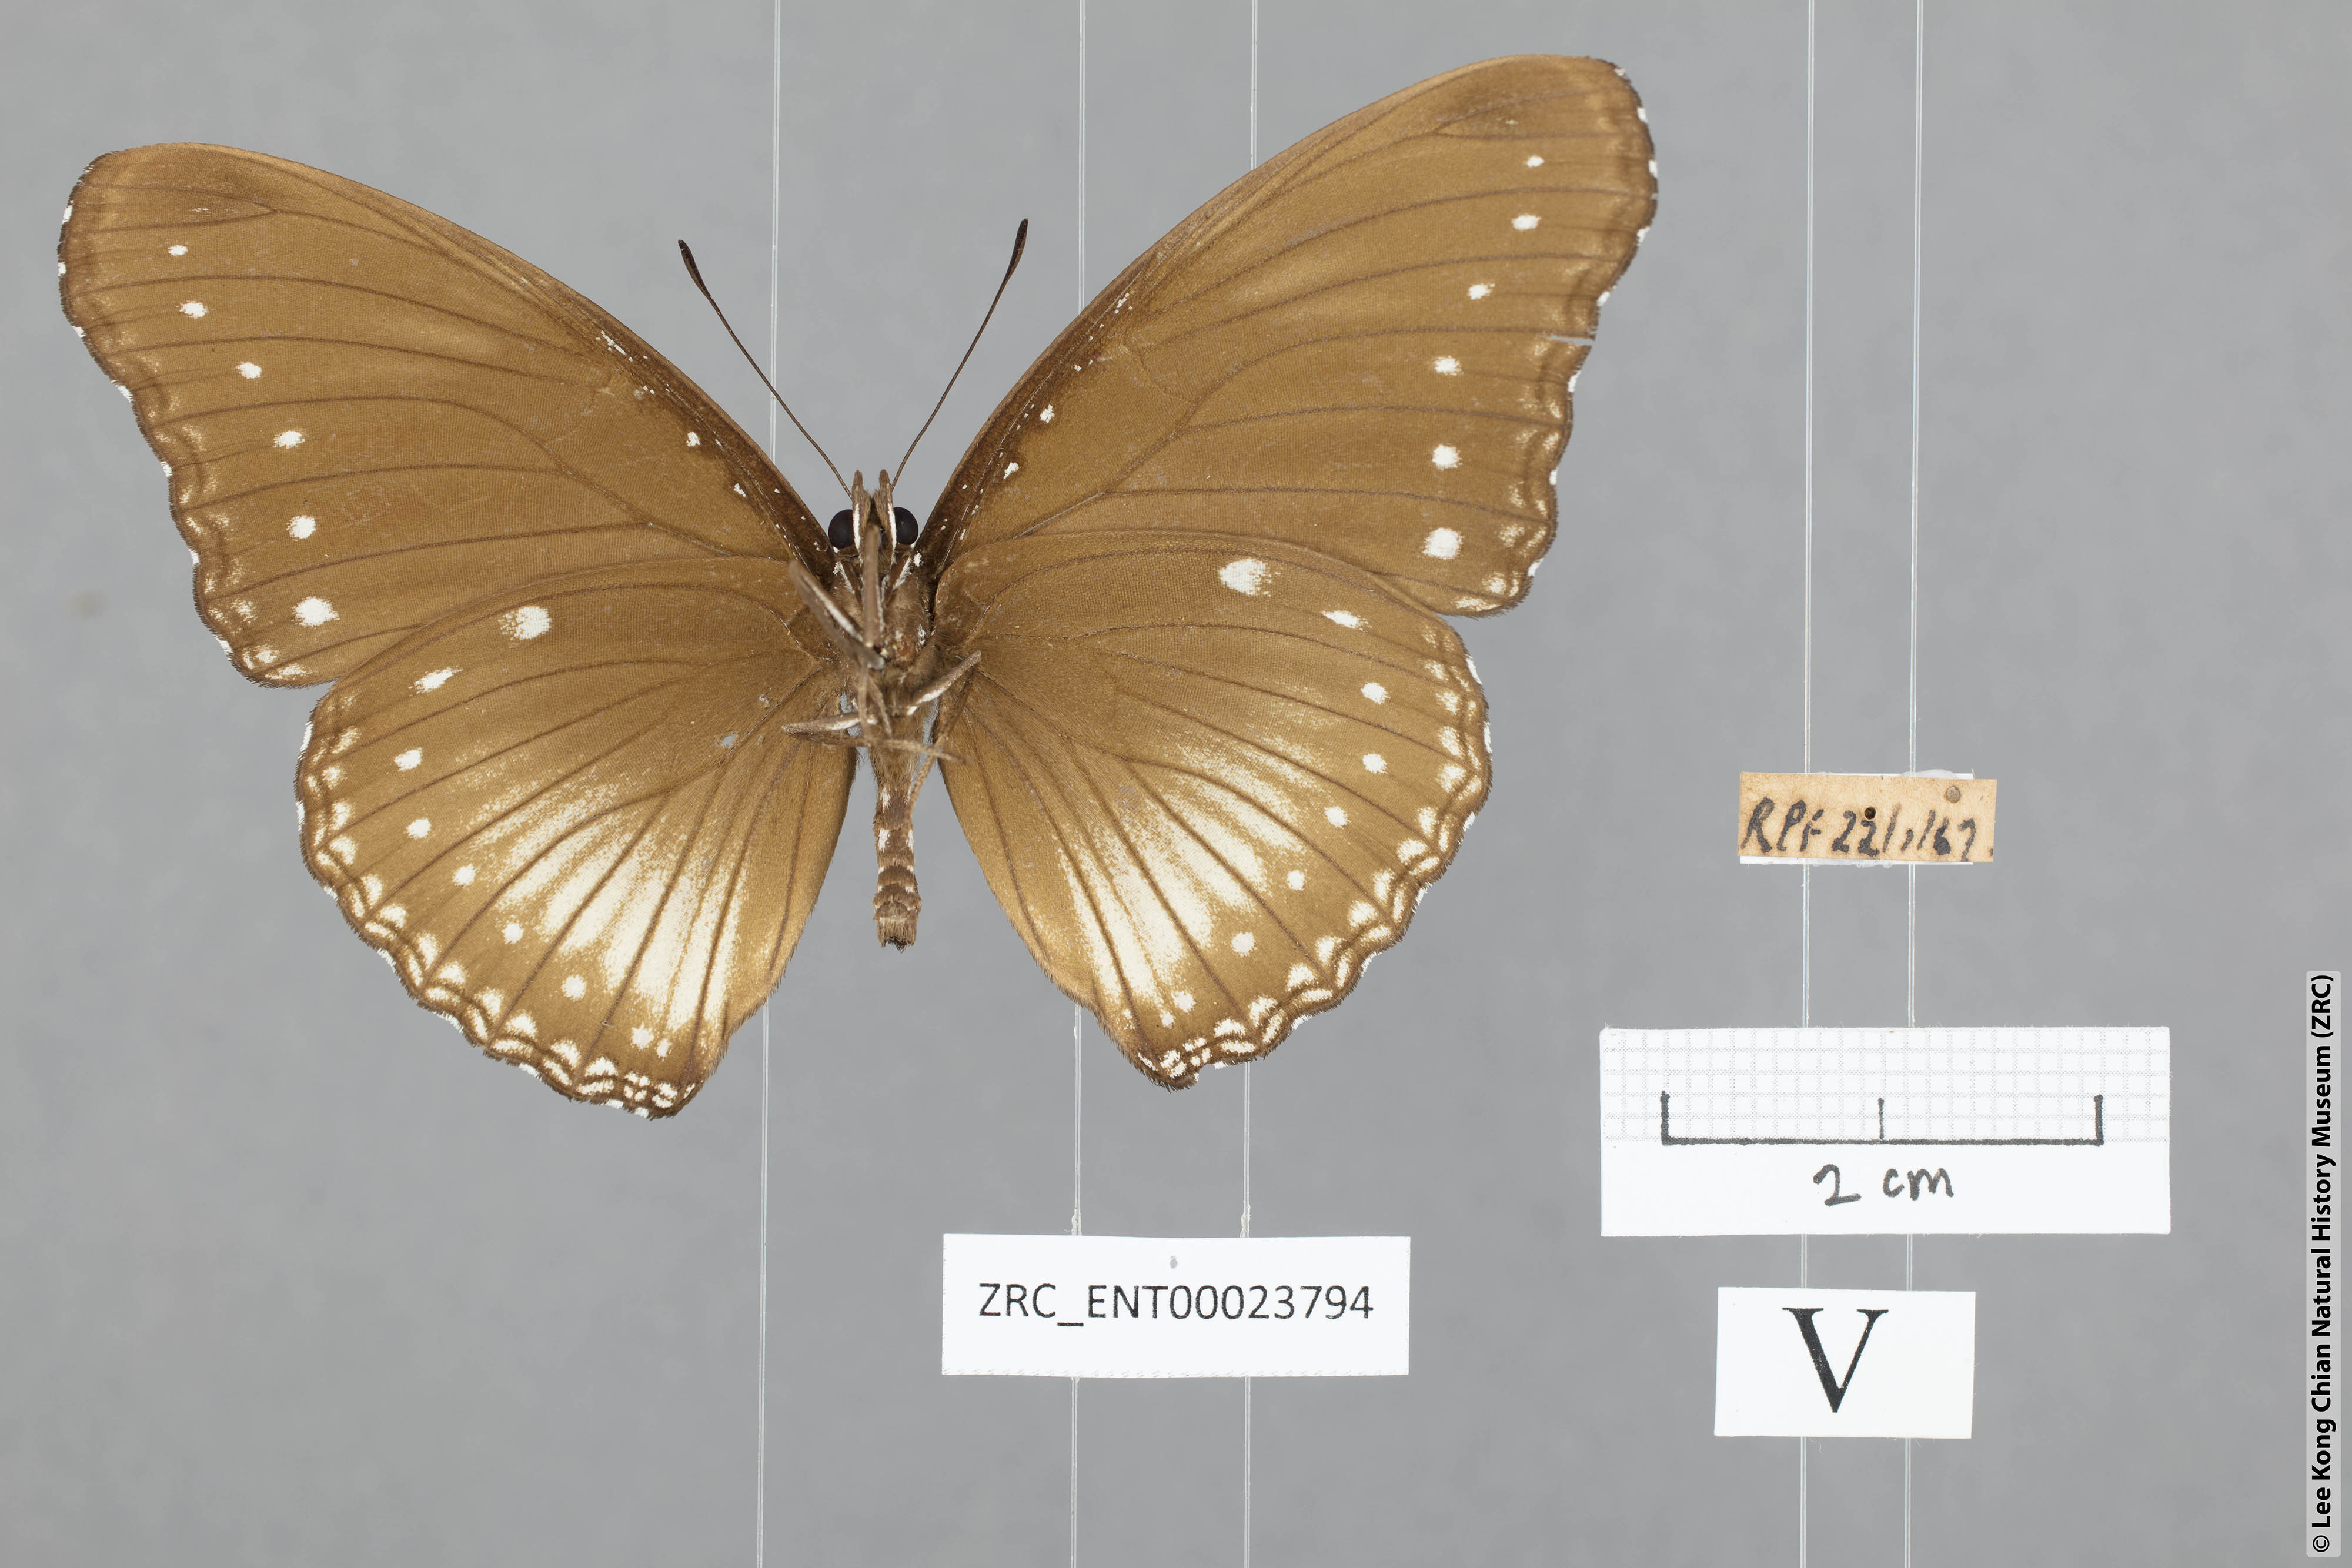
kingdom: Animalia
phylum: Arthropoda
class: Insecta
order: Lepidoptera
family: Nymphalidae
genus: Hypolimnas
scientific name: Hypolimnas anomala
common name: Malayan eggfly
